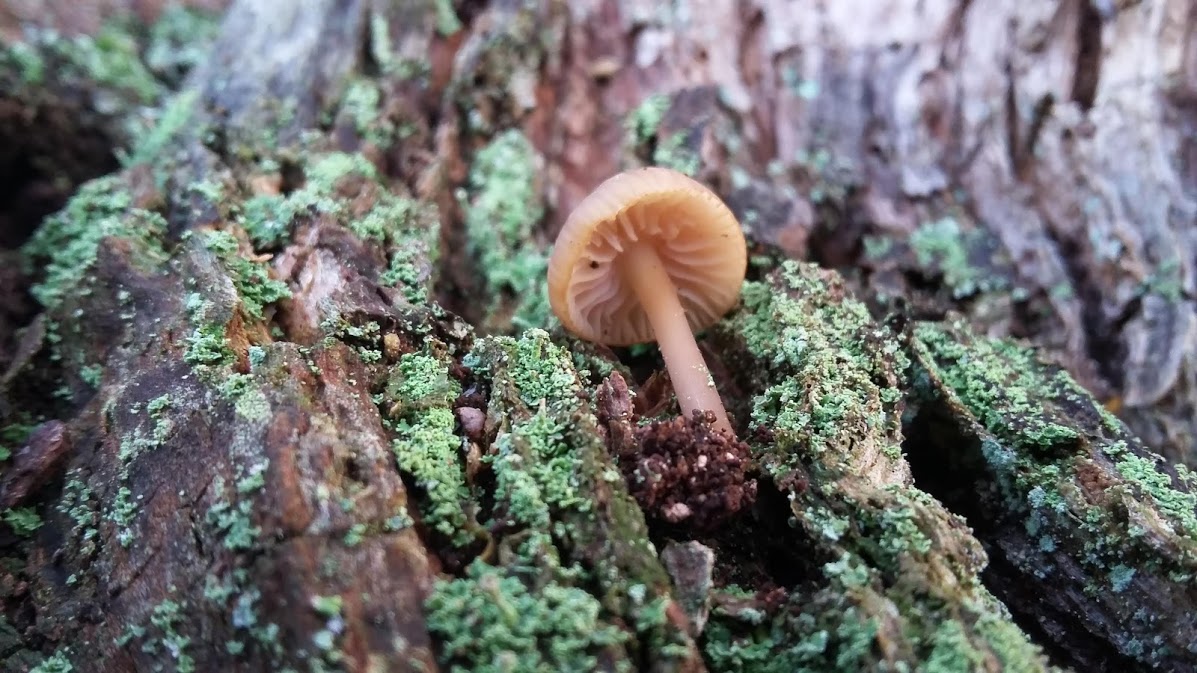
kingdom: Fungi
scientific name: Fungi
